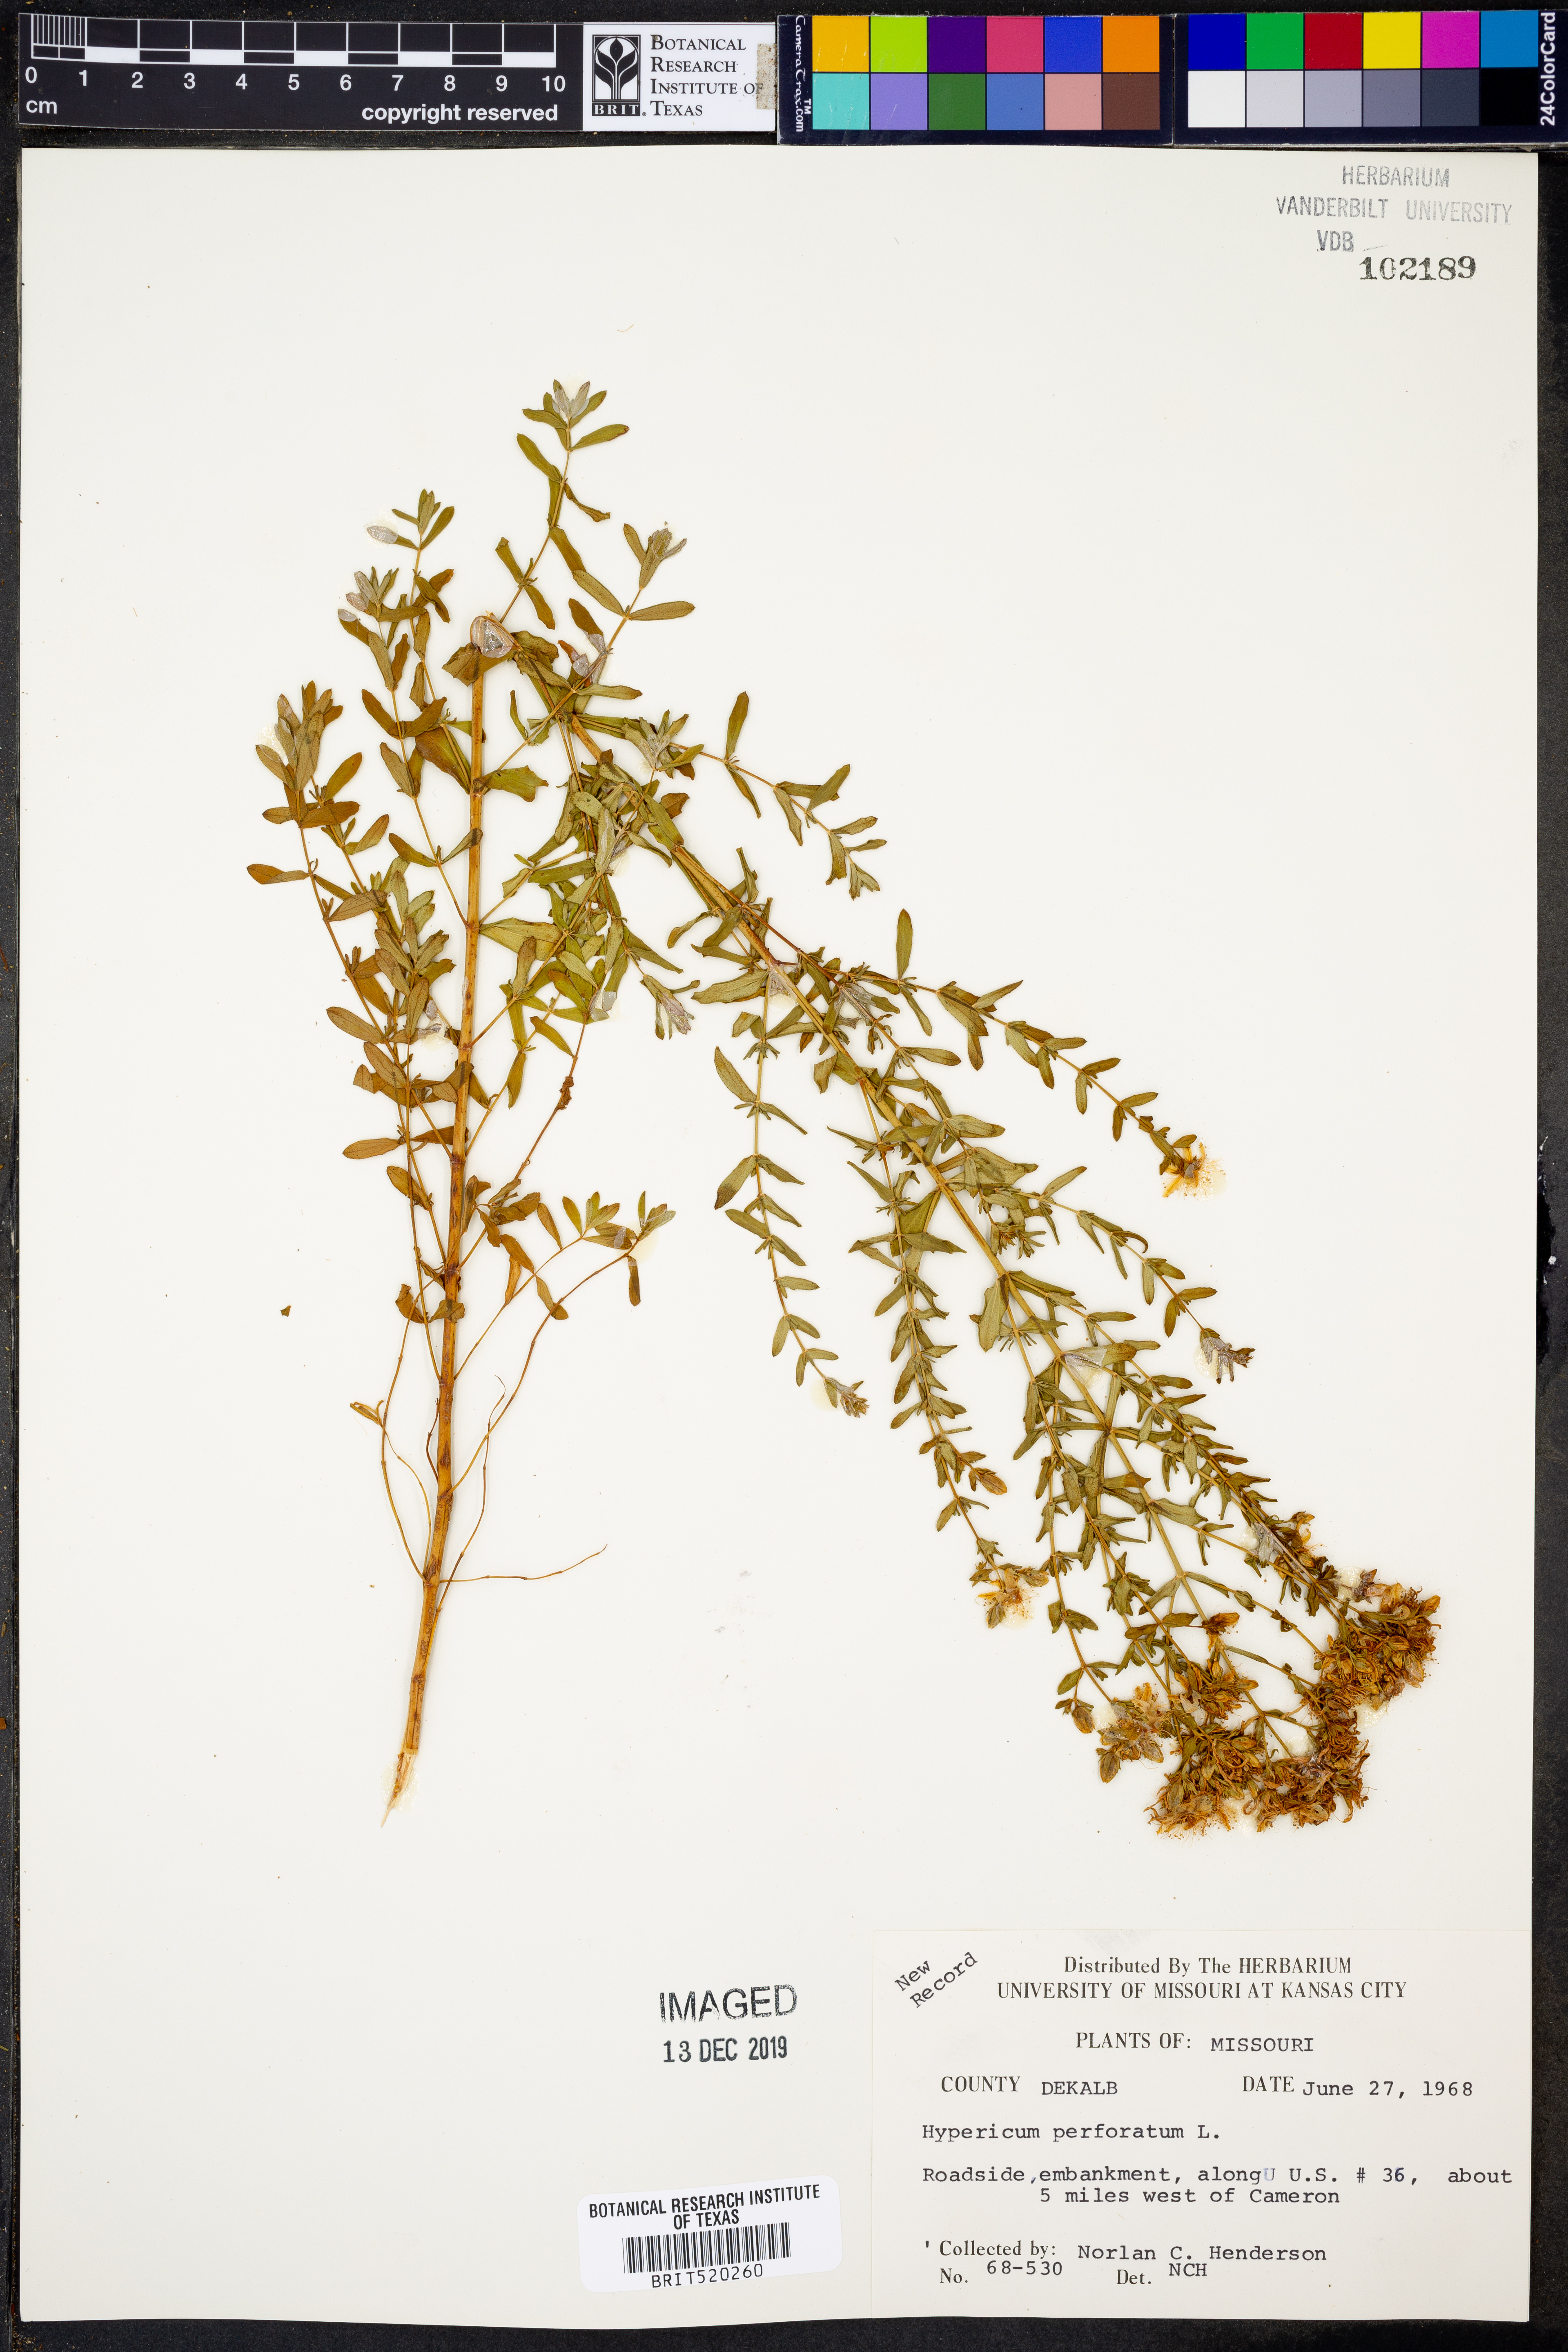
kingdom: Plantae
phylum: Tracheophyta
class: Magnoliopsida
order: Malpighiales
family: Hypericaceae
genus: Hypericum
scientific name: Hypericum perforatum
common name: Common st. johnswort
